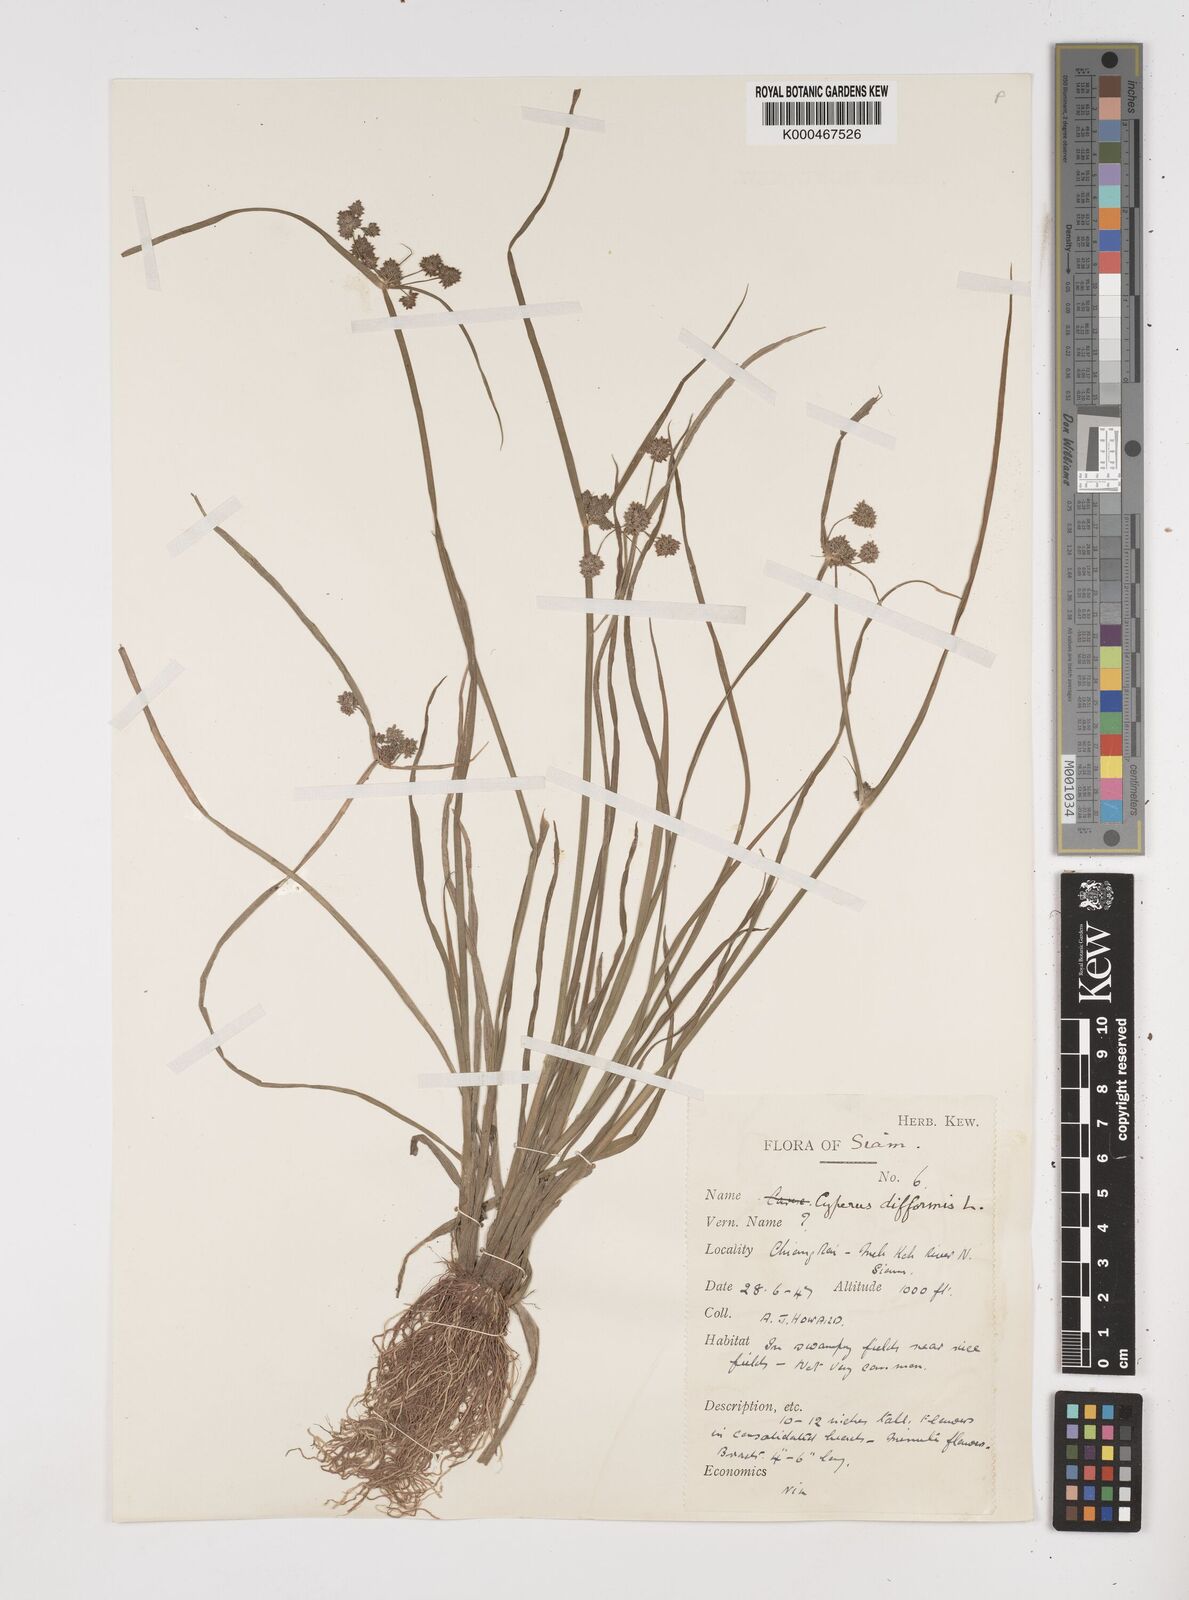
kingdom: Plantae
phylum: Tracheophyta
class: Liliopsida
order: Poales
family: Cyperaceae
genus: Cyperus
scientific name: Cyperus difformis
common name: Variable flatsedge
